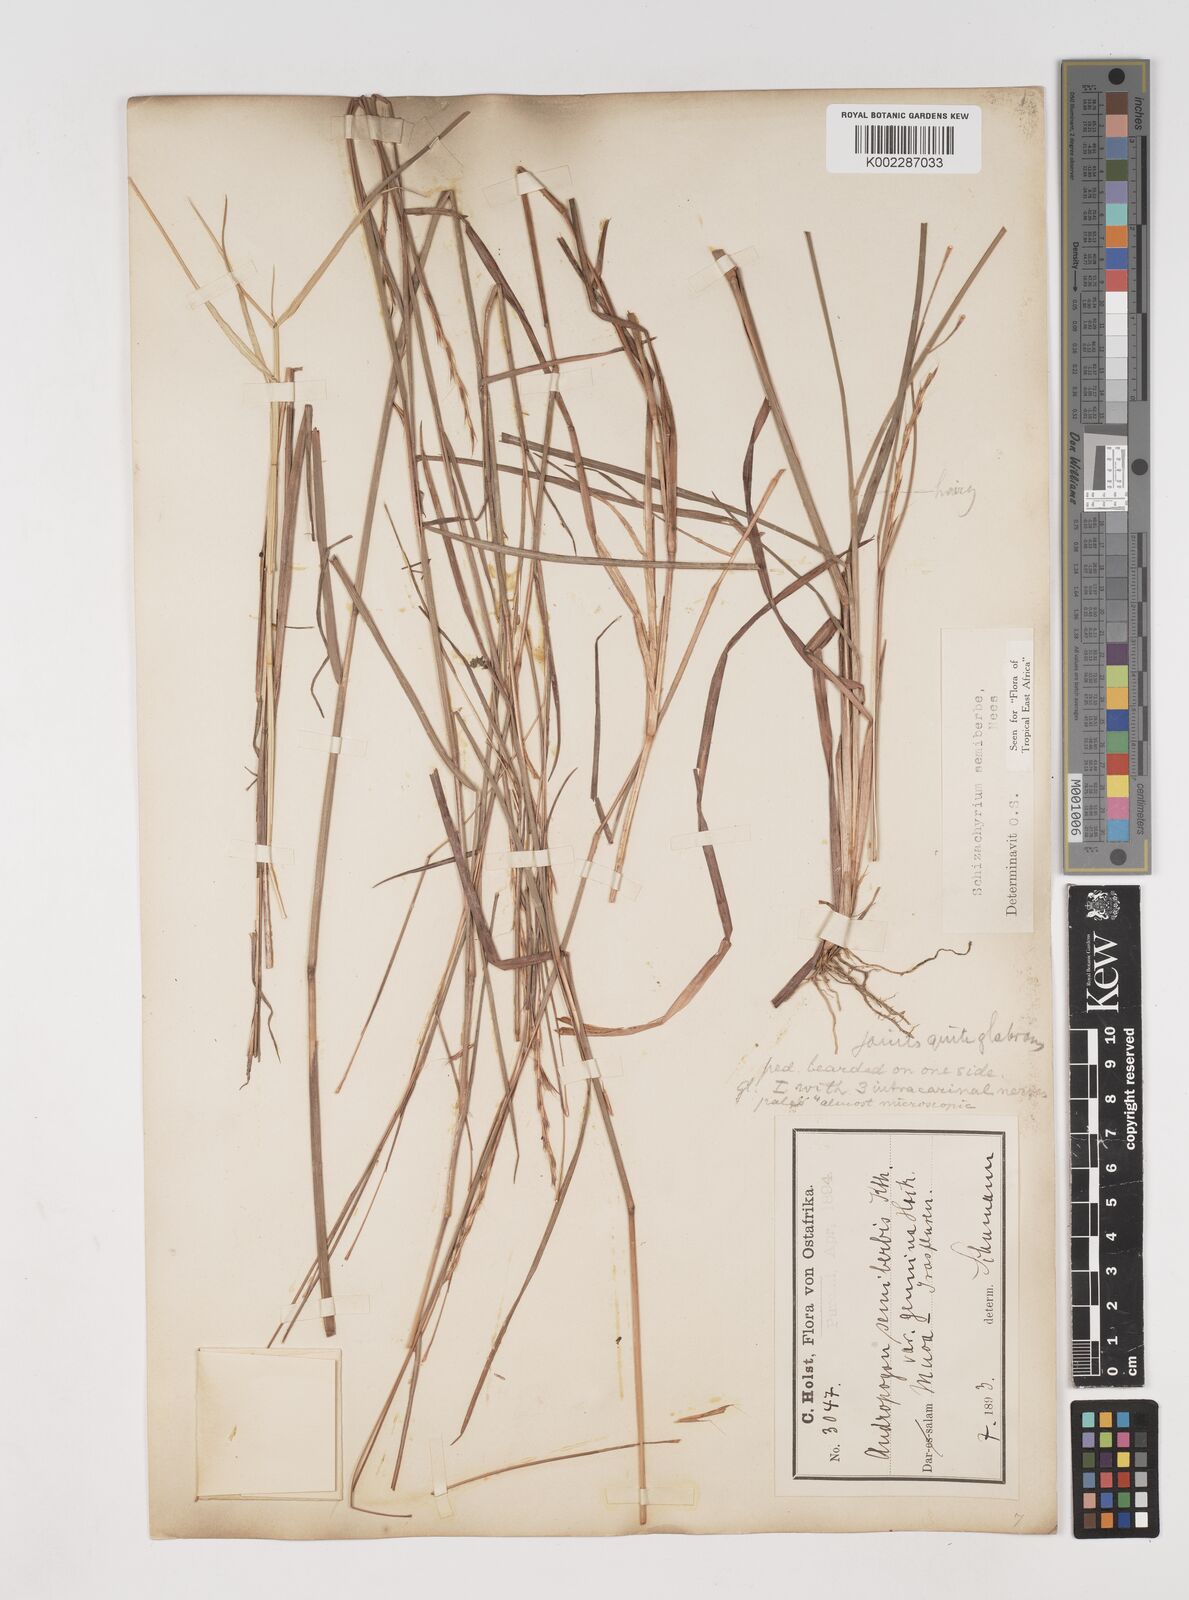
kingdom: Plantae
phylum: Tracheophyta
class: Liliopsida
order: Poales
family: Poaceae
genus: Schizachyrium
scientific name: Schizachyrium sanguineum
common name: Crimson bluestem
